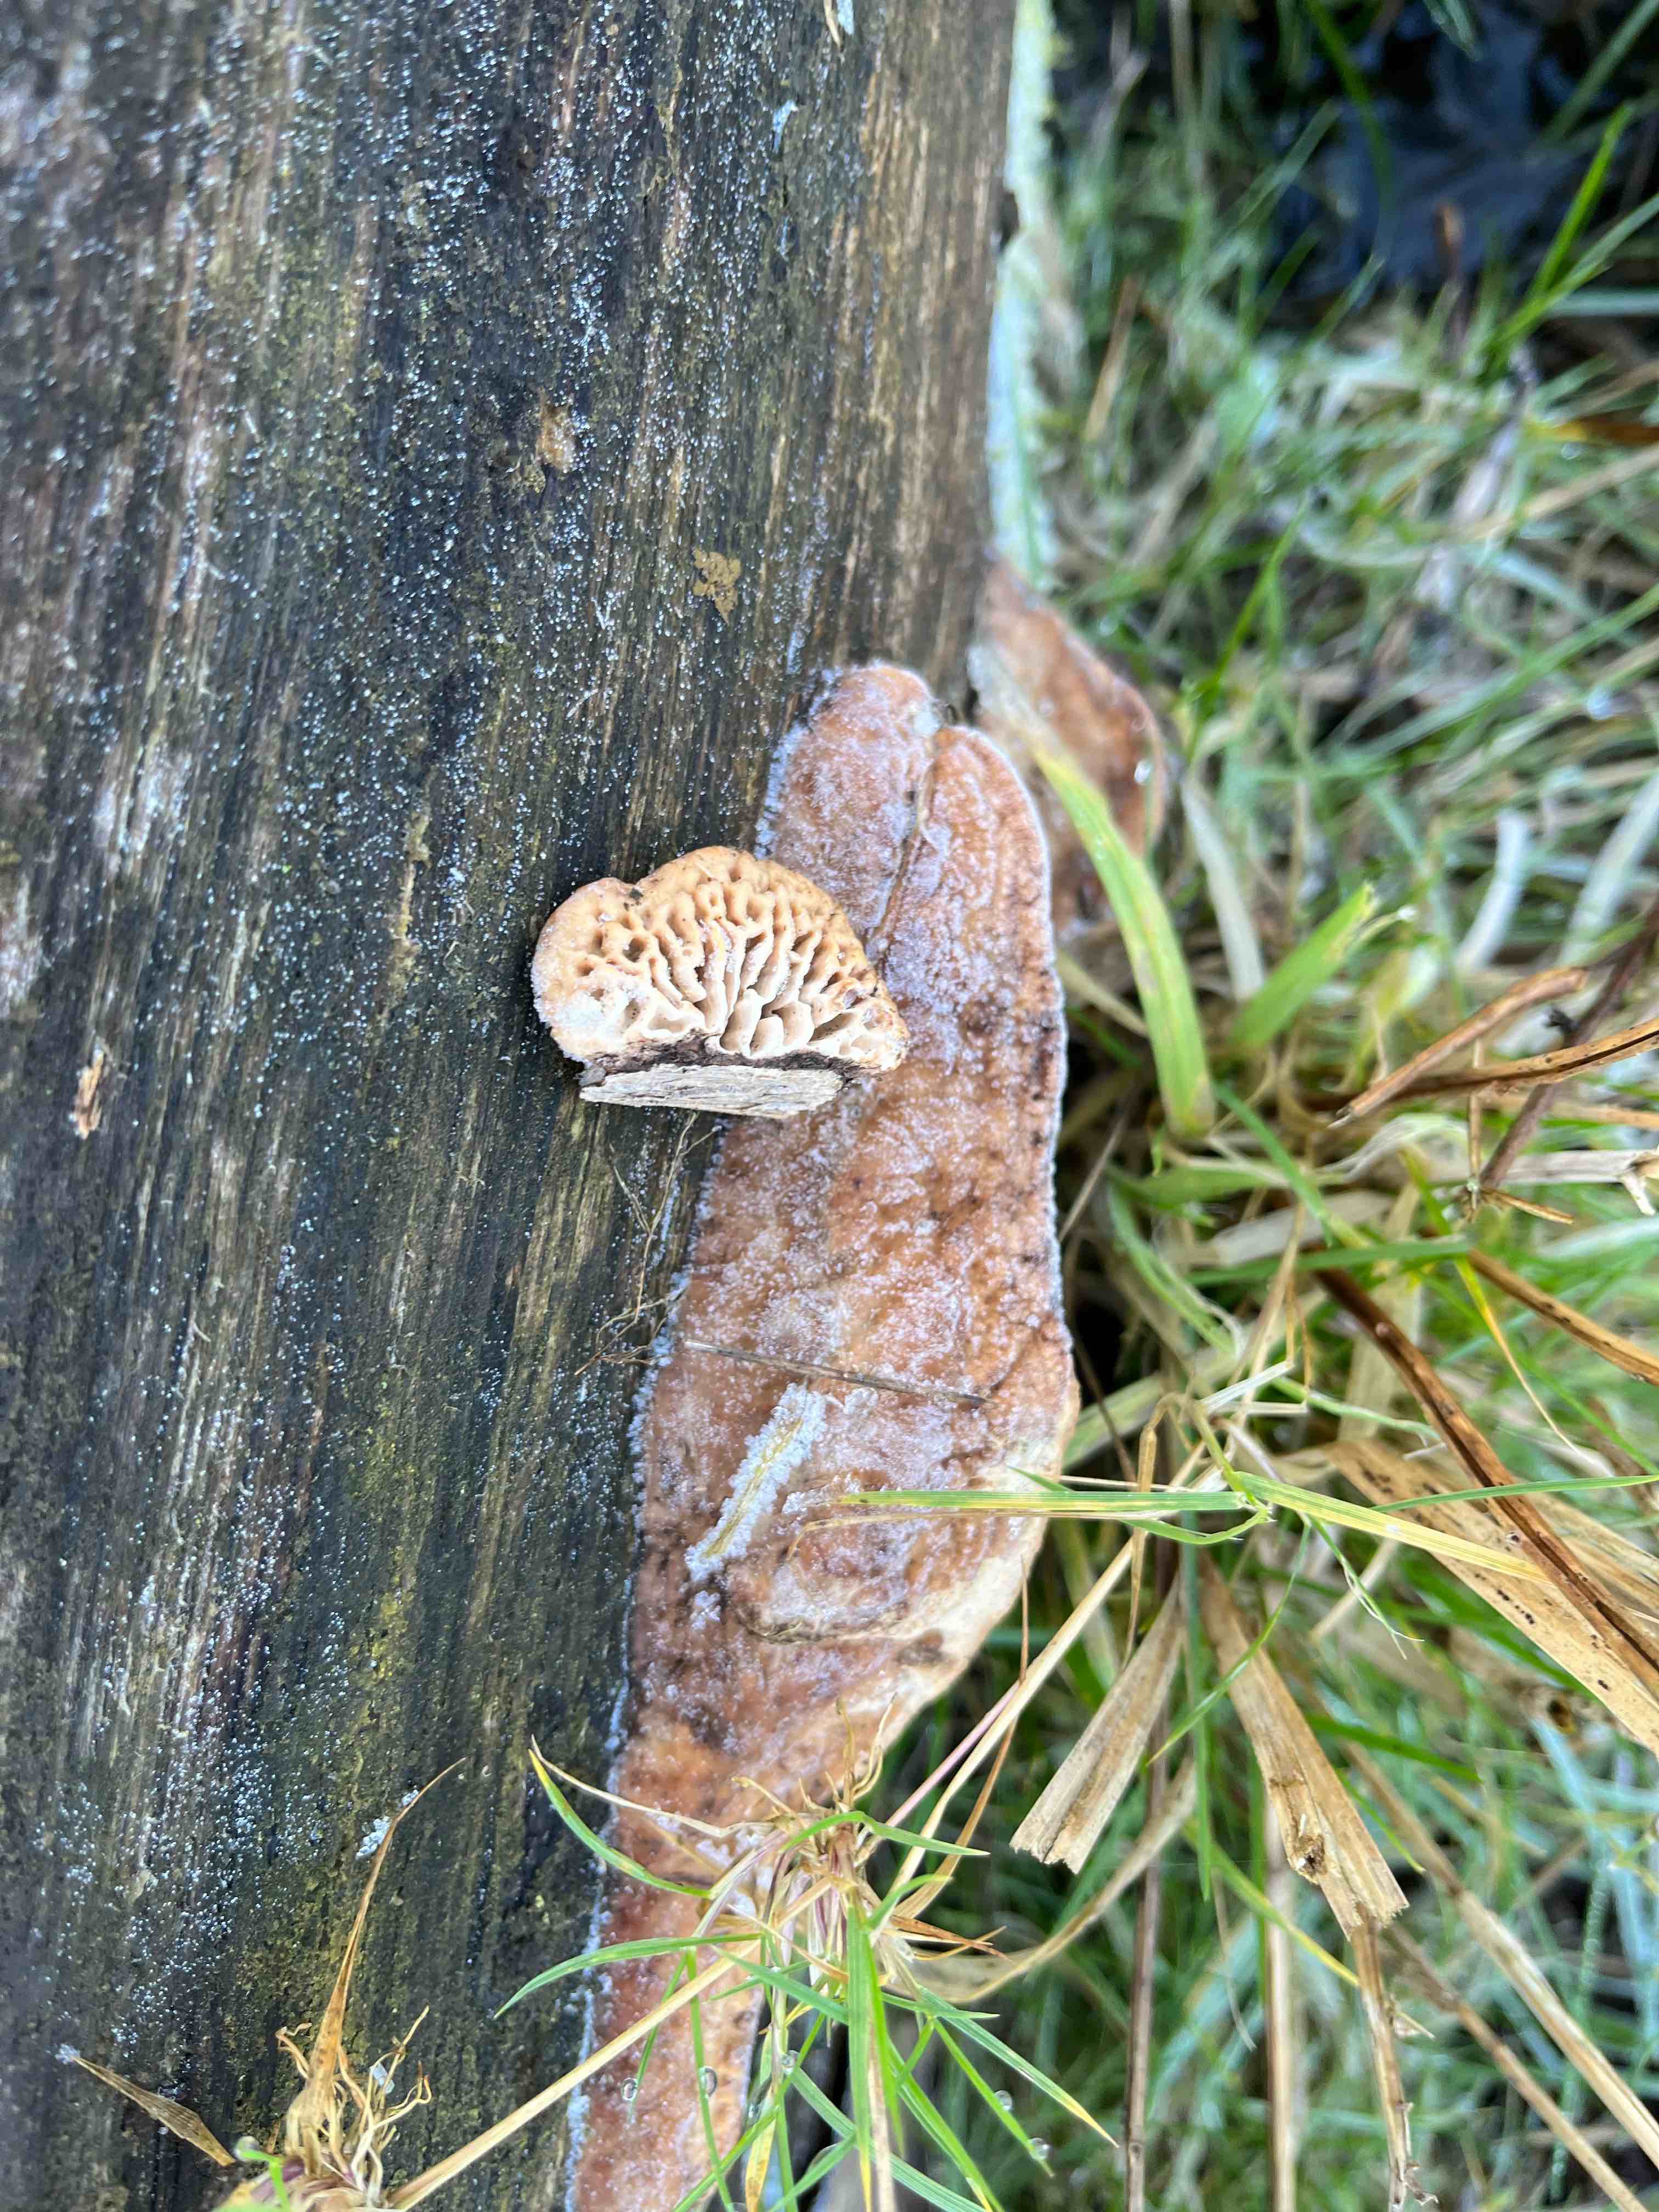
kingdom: Fungi
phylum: Basidiomycota
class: Agaricomycetes
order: Polyporales
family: Fomitopsidaceae
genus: Daedalea
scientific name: Daedalea quercina
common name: ege-labyrintsvamp
